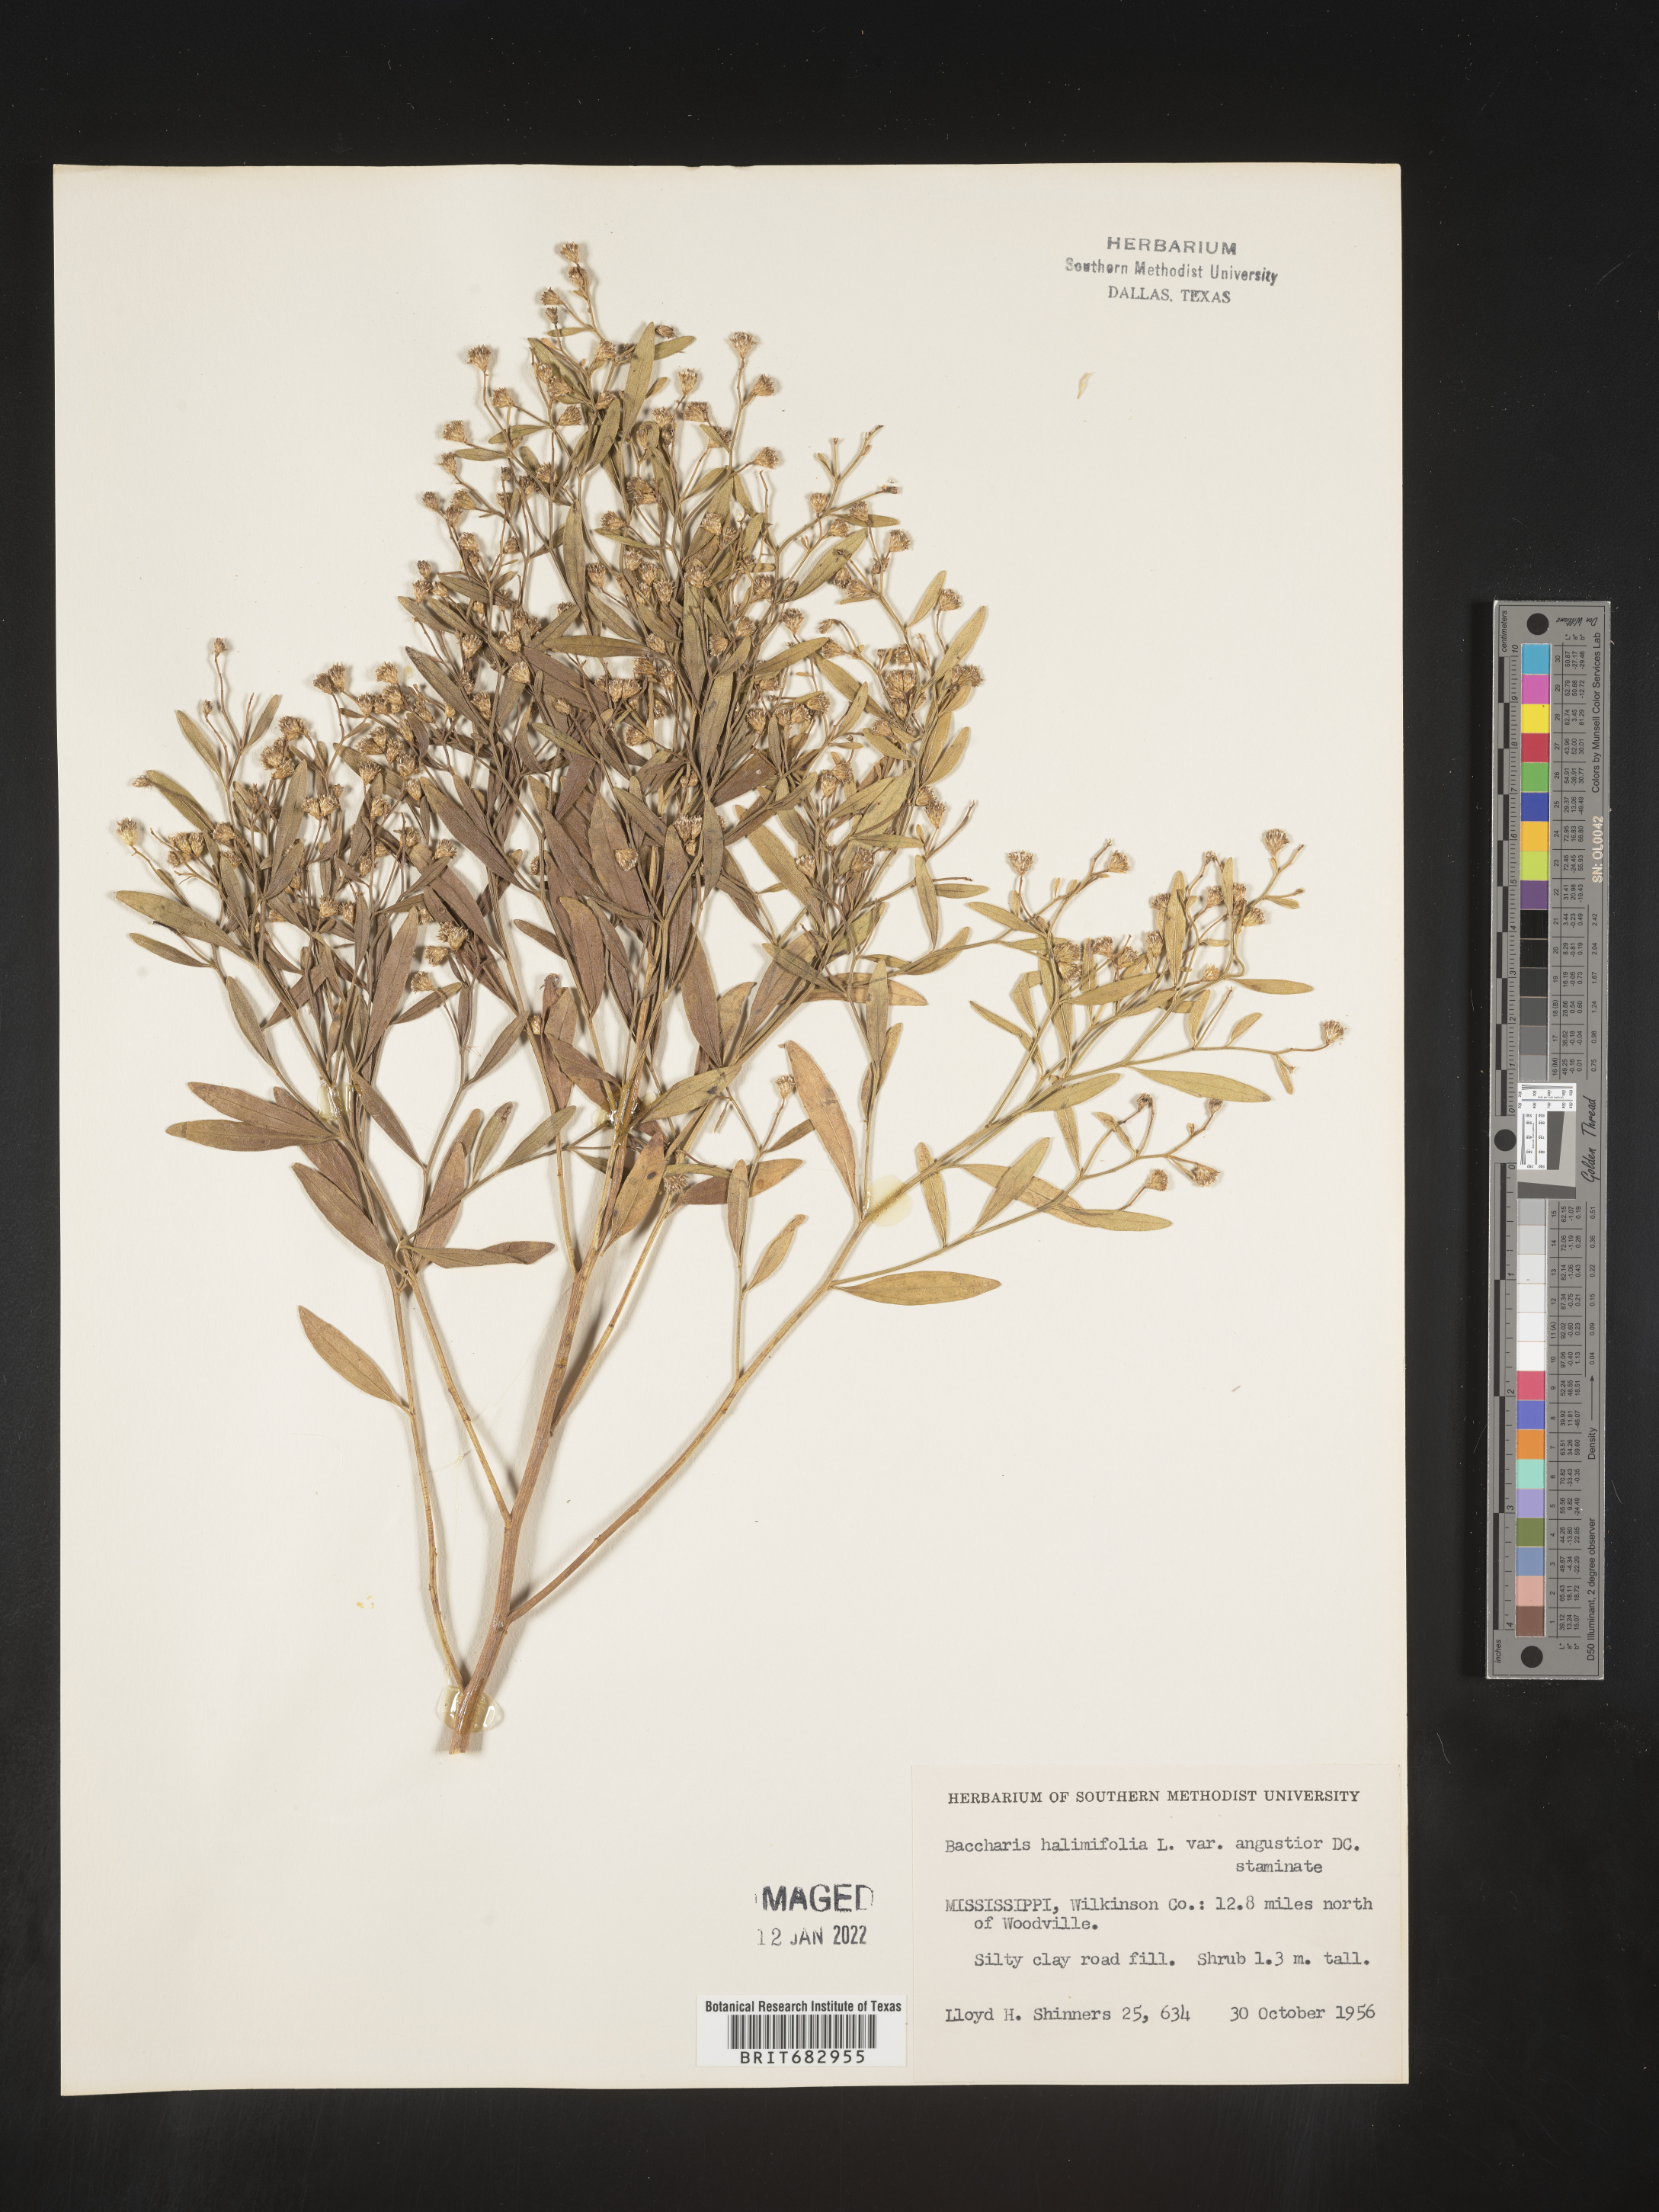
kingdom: Plantae
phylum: Tracheophyta
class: Magnoliopsida
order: Asterales
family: Asteraceae
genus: Nidorella
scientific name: Nidorella ivifolia
